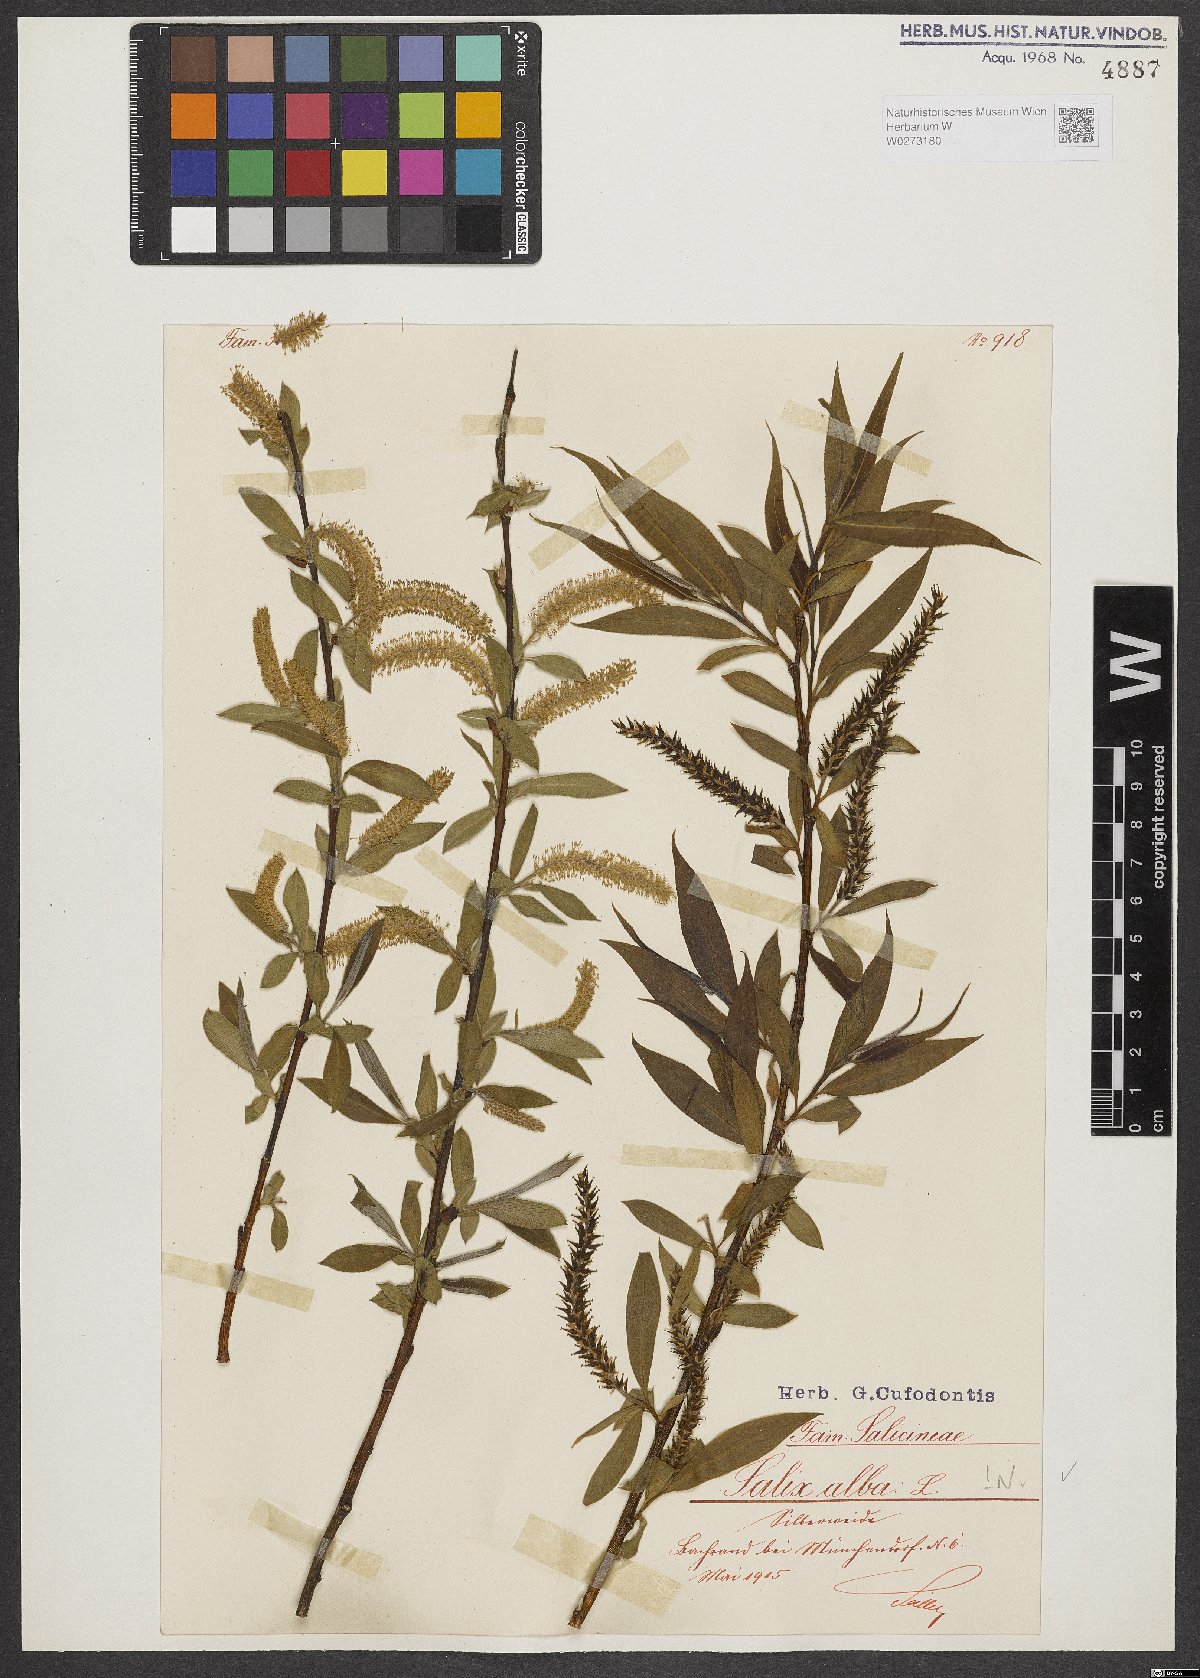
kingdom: Plantae
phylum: Tracheophyta
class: Magnoliopsida
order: Malpighiales
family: Salicaceae
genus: Salix
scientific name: Salix alba
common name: White willow
